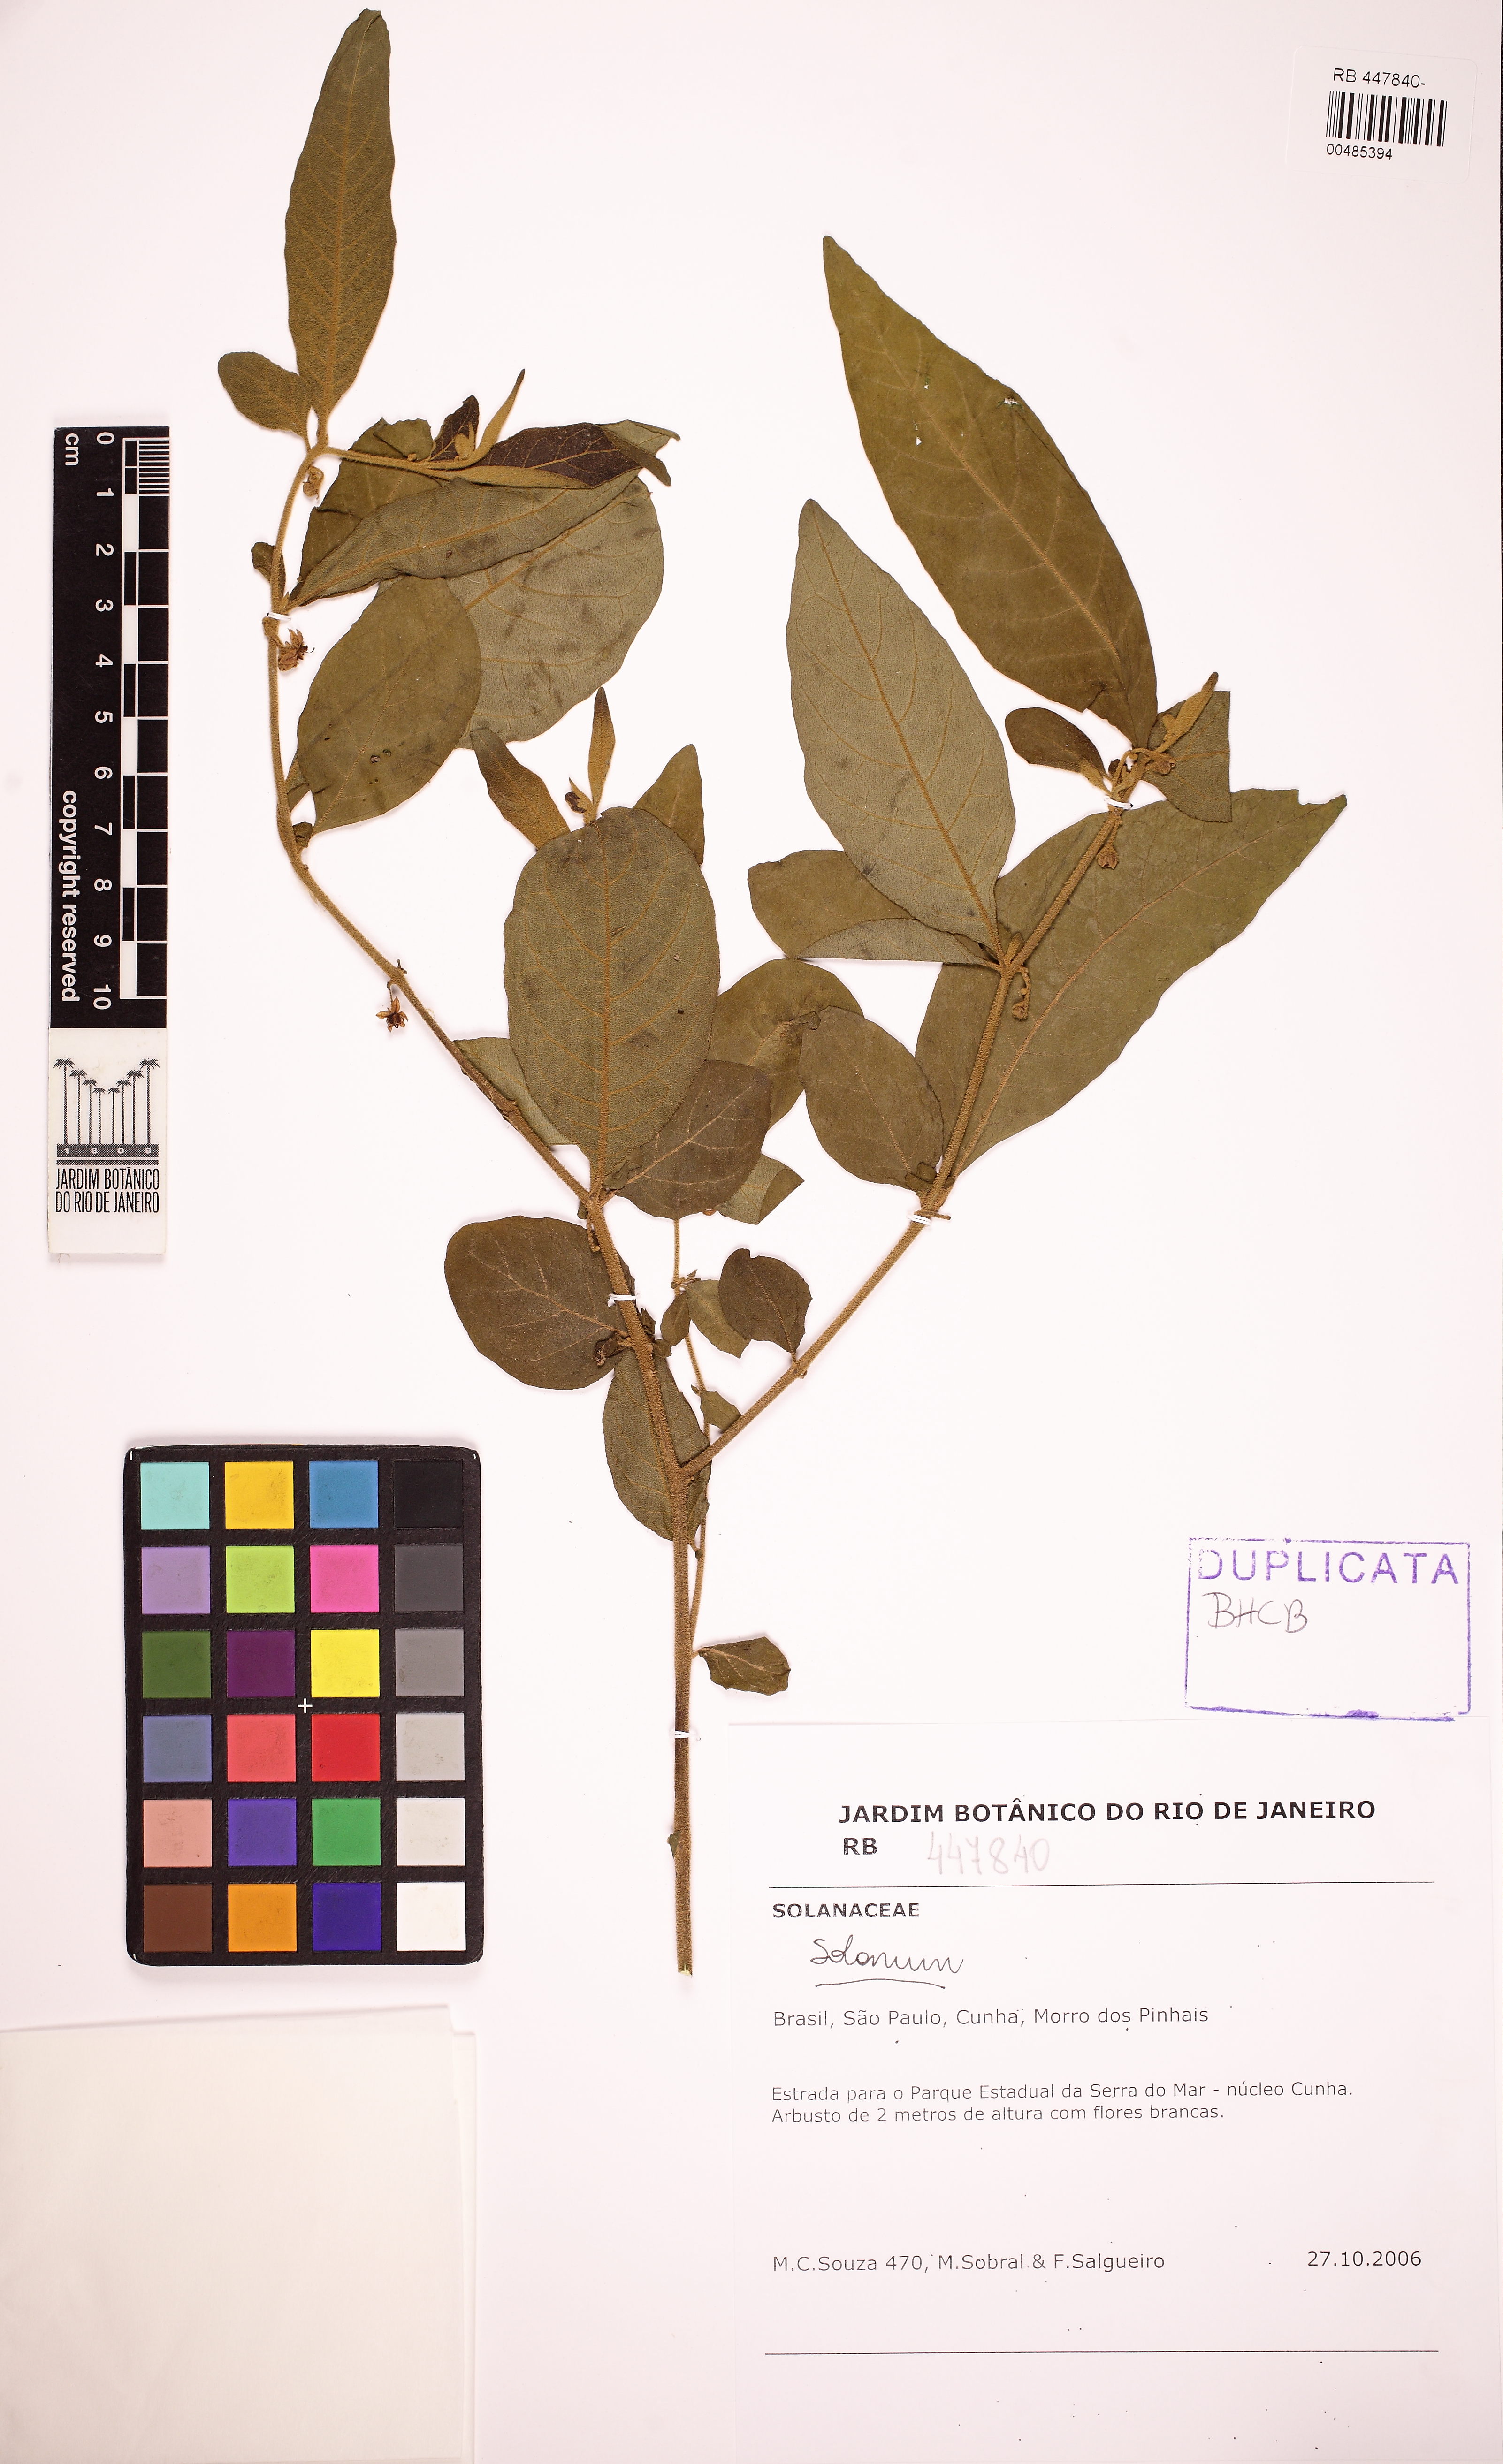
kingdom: Plantae
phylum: Tracheophyta
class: Magnoliopsida
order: Solanales
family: Solanaceae
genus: Solanum
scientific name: Solanum gnaphalocarpum
